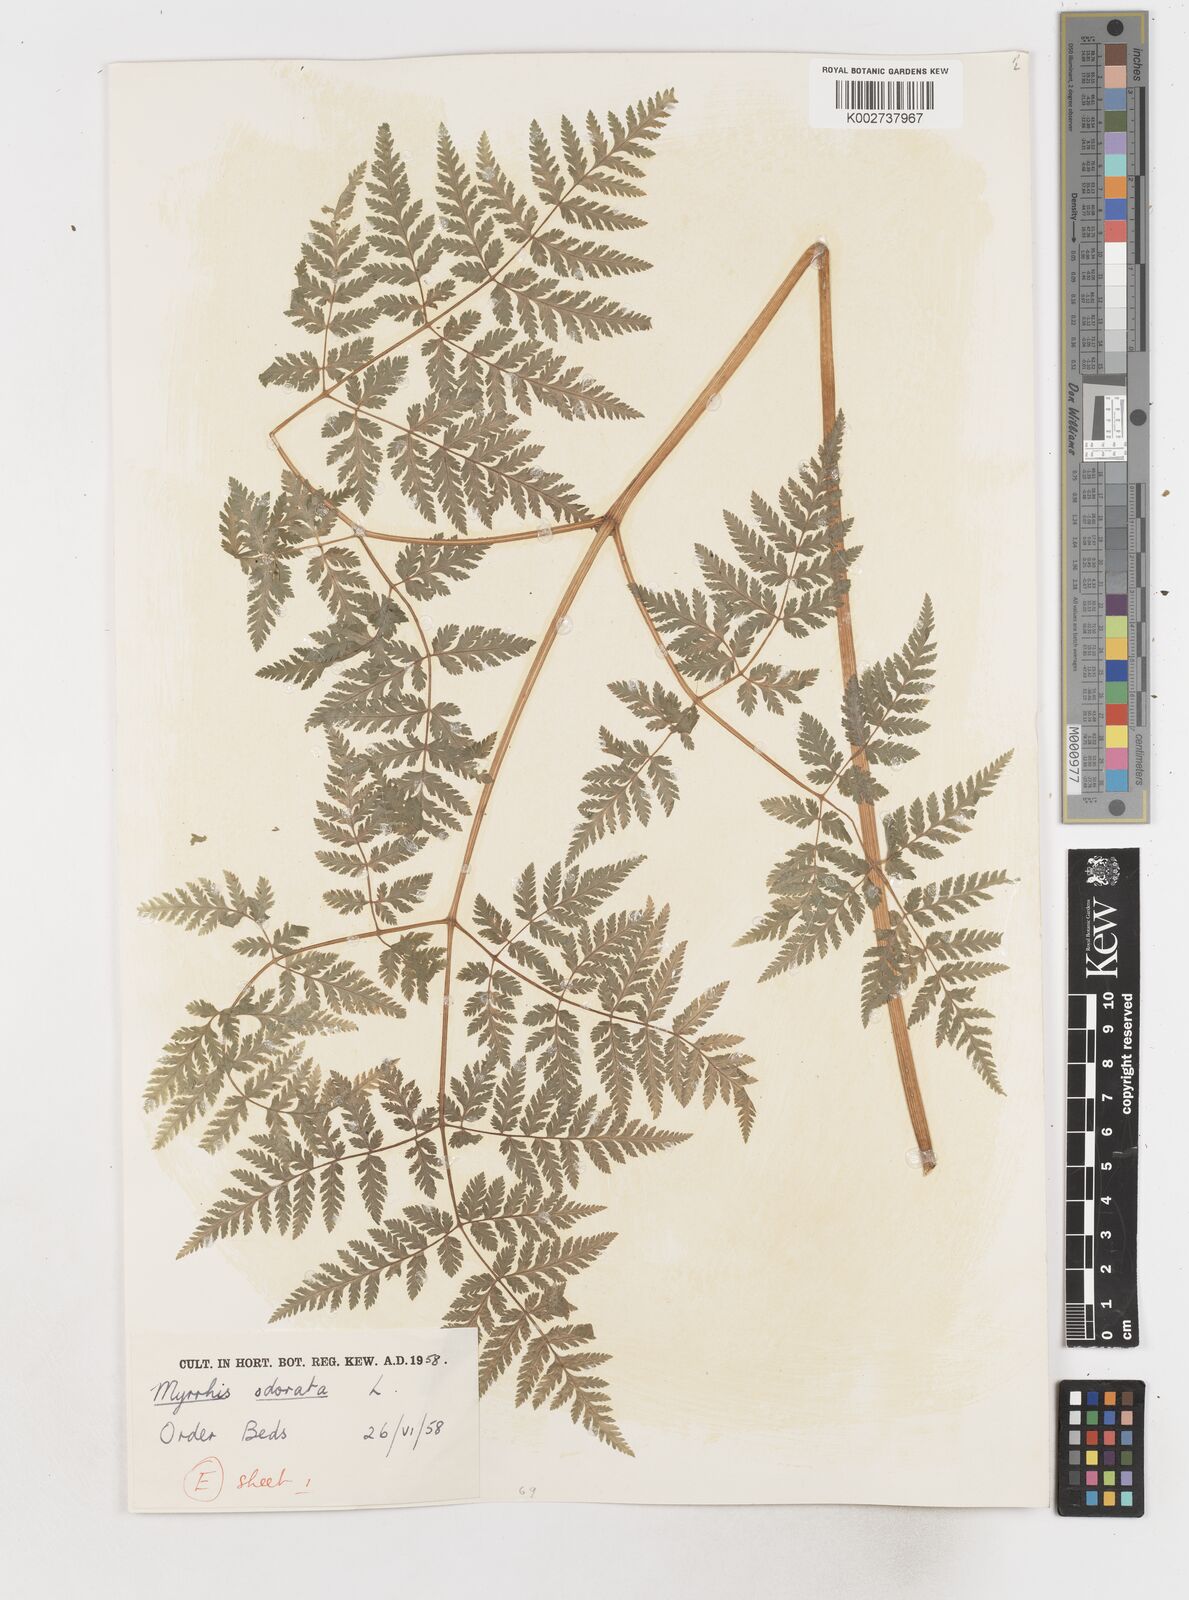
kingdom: Plantae
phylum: Tracheophyta
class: Magnoliopsida
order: Apiales
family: Apiaceae
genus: Myrrhis
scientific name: Myrrhis odorata
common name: Sweet cicely
